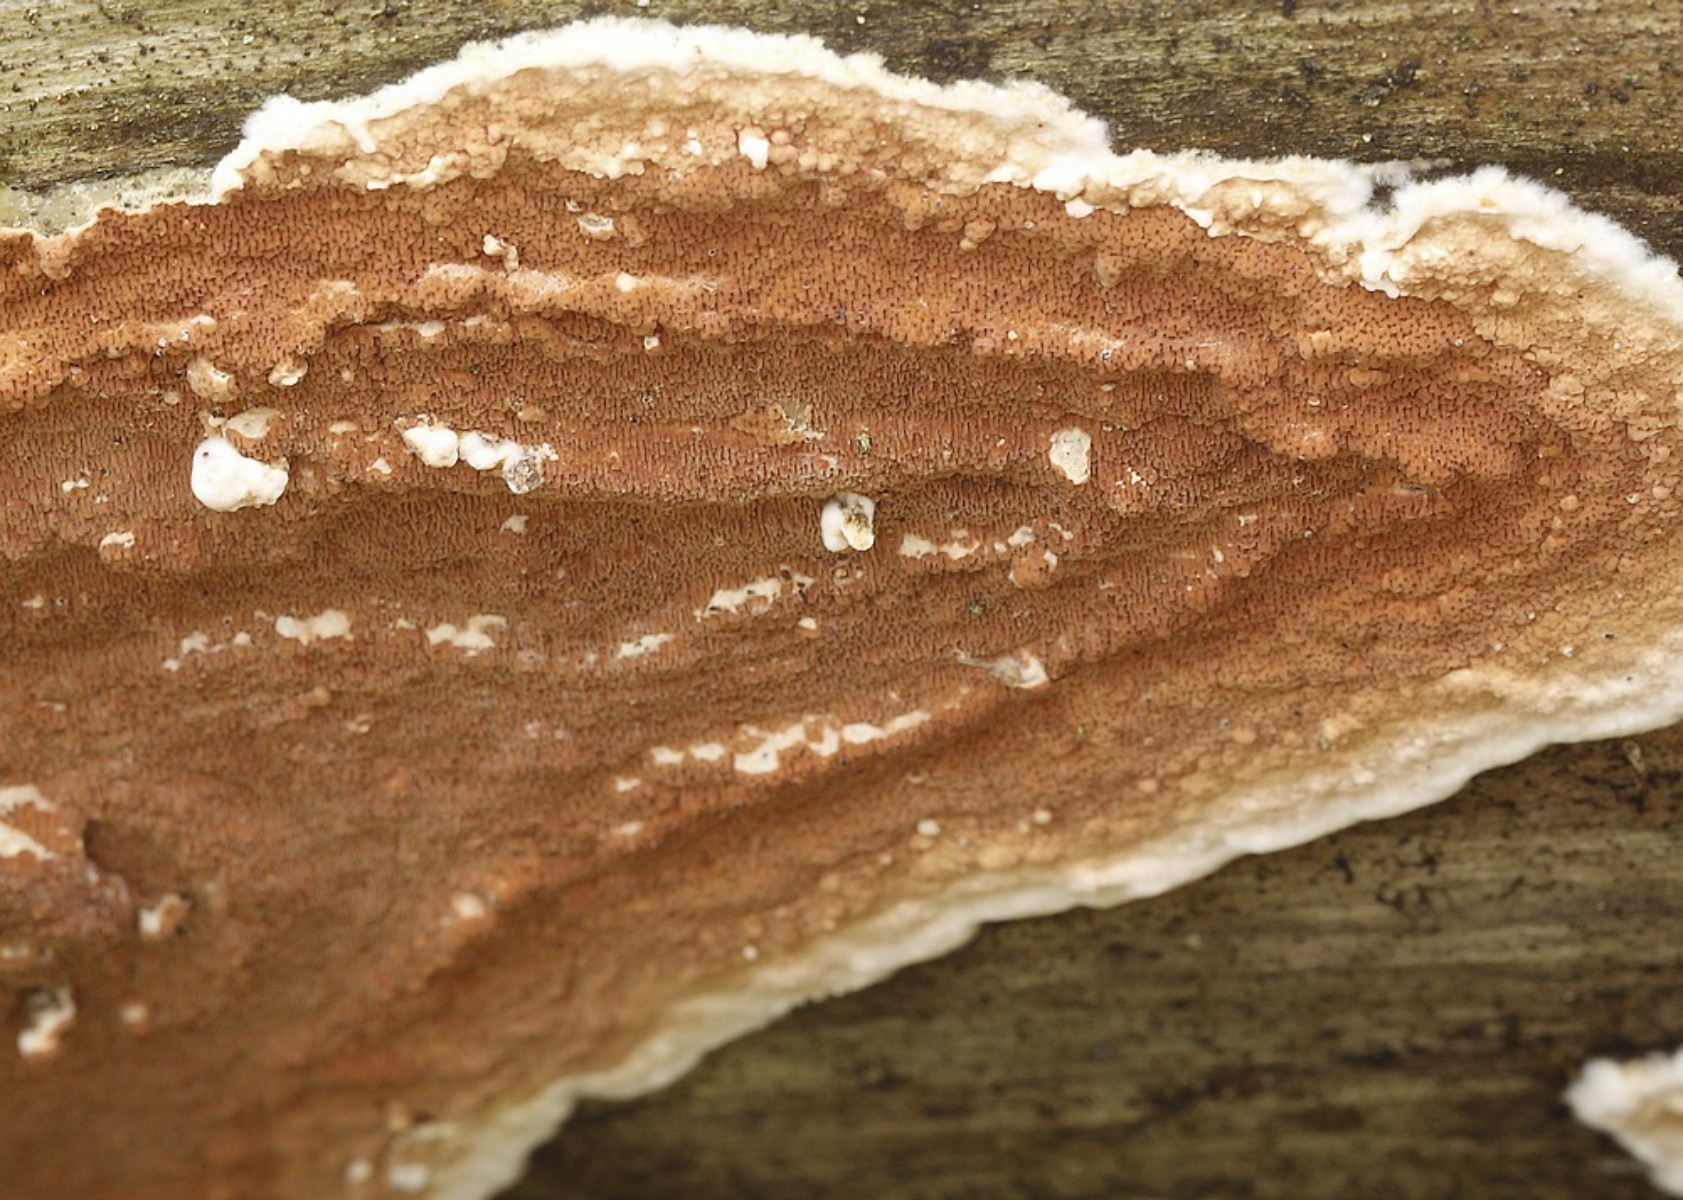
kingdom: Fungi
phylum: Basidiomycota
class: Agaricomycetes
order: Polyporales
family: Irpicaceae
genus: Meruliopsis
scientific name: Meruliopsis taxicola
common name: purpurbrun foldporesvamp
